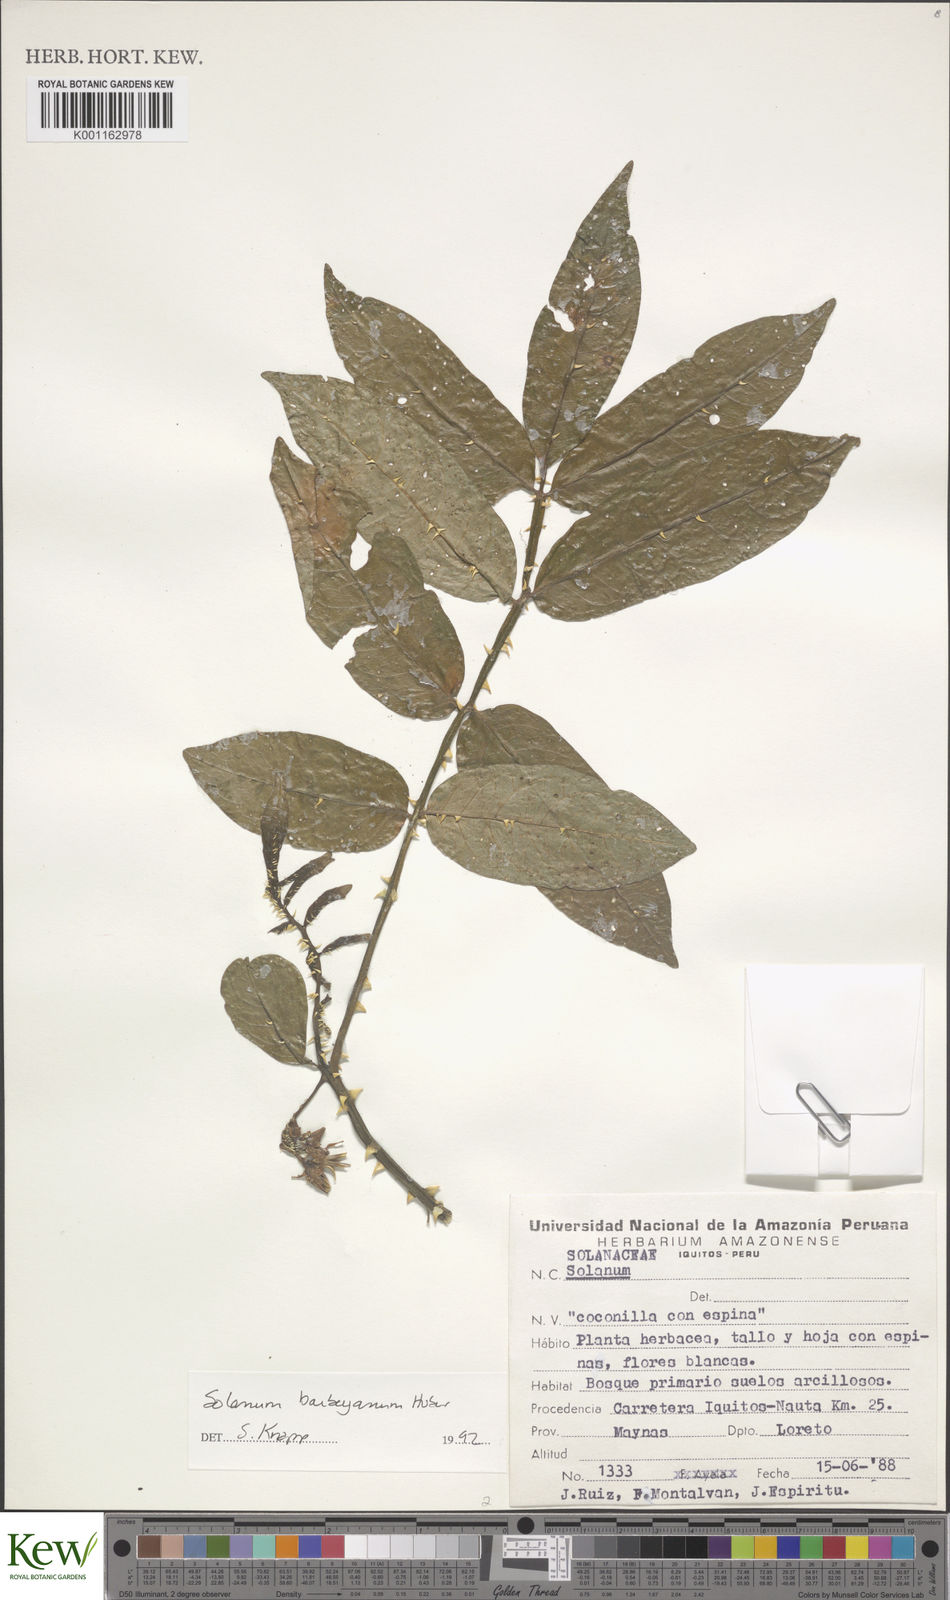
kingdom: Plantae
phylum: Tracheophyta
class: Magnoliopsida
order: Solanales
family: Solanaceae
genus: Solanum
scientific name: Solanum barbeyanum
